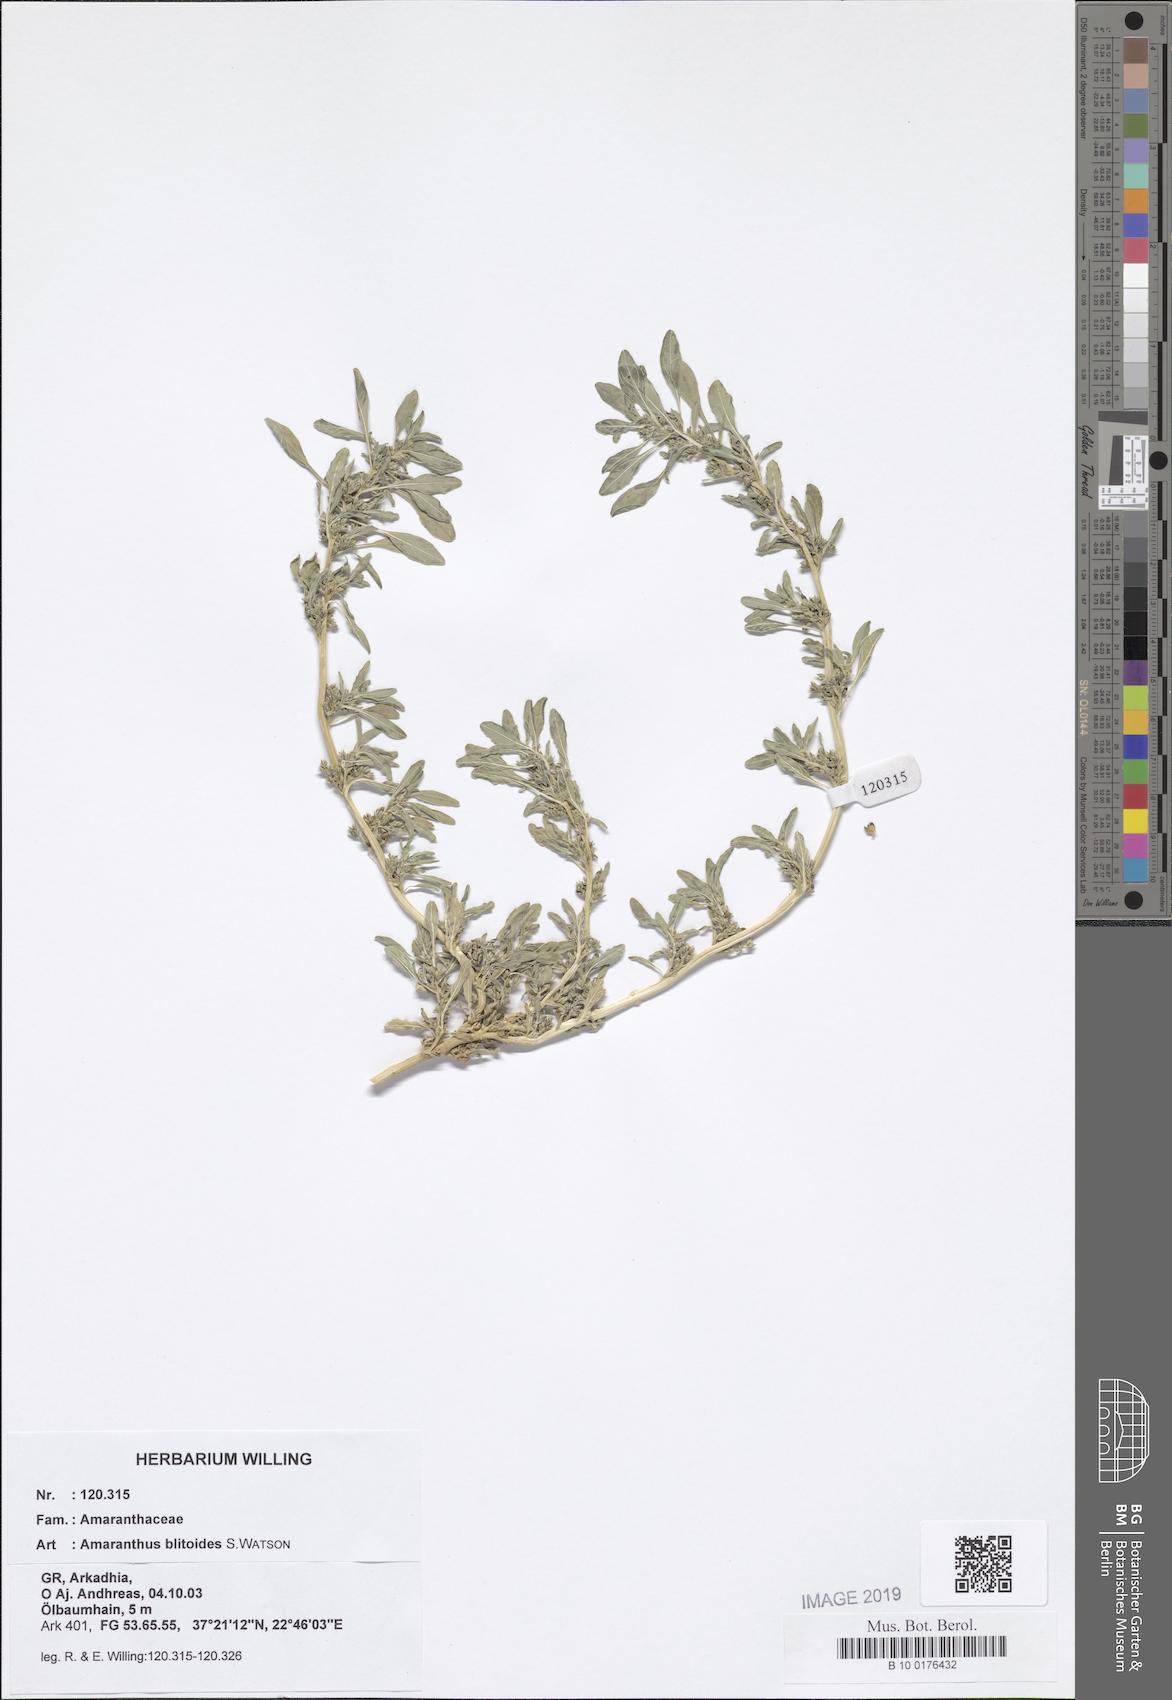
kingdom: Plantae
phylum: Tracheophyta
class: Magnoliopsida
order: Caryophyllales
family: Amaranthaceae
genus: Amaranthus
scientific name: Amaranthus blitoides
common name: Prostrate pigweed
